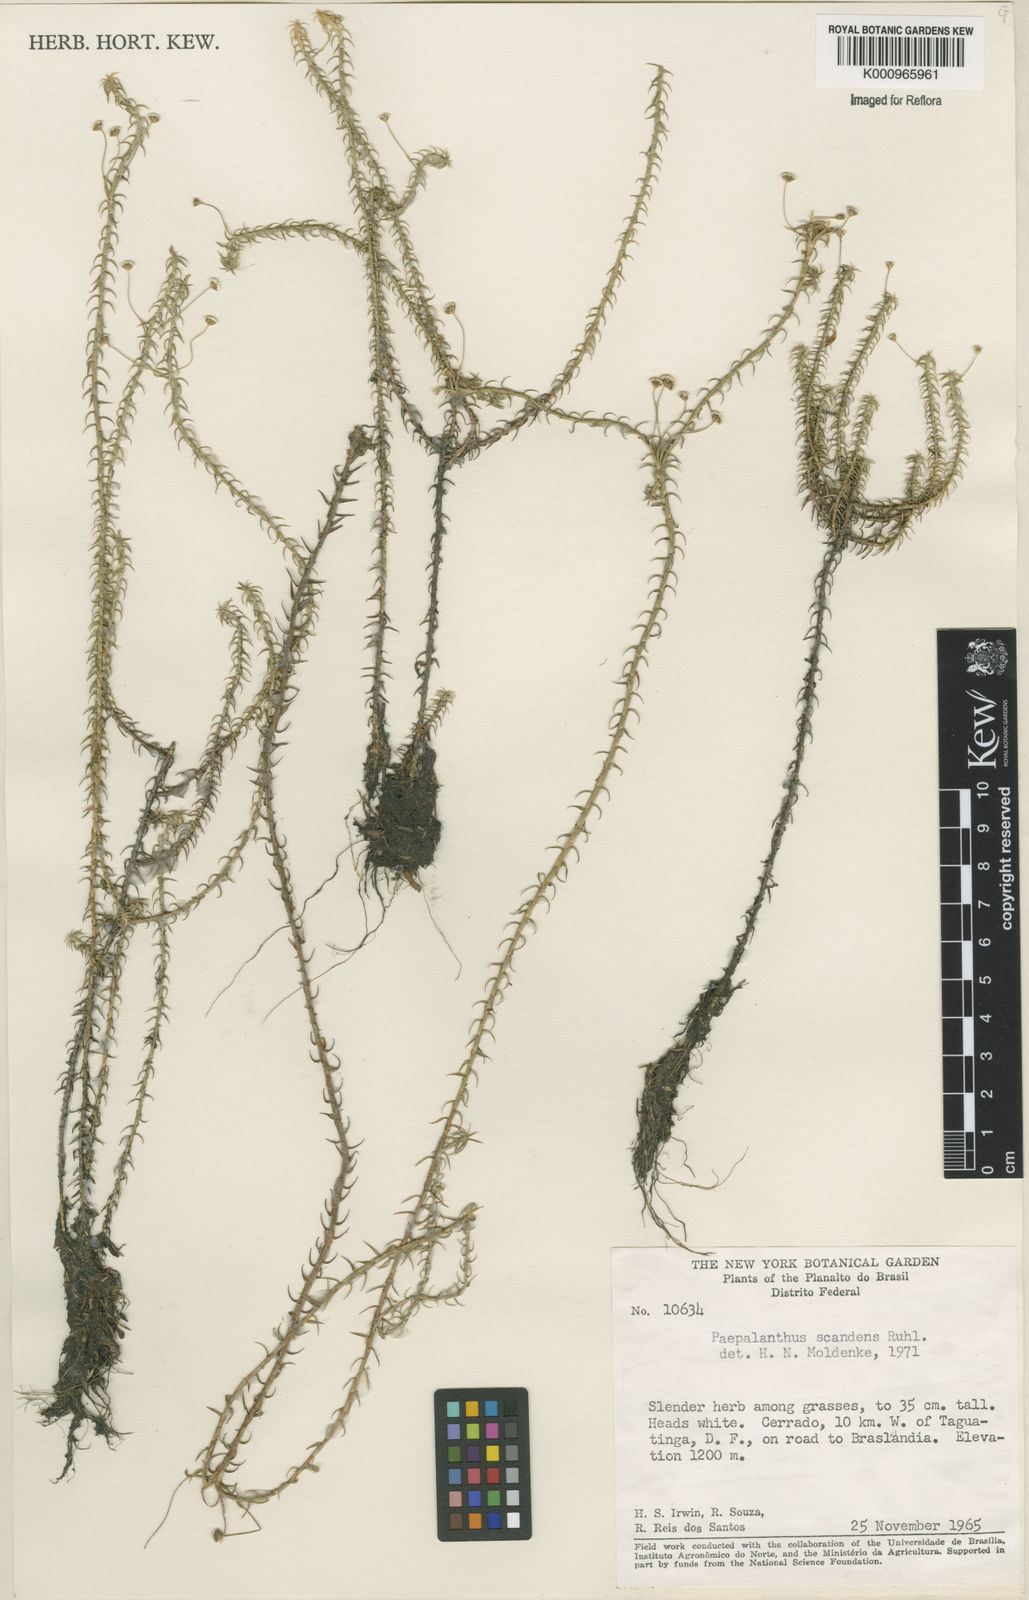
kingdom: Plantae
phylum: Tracheophyta
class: Liliopsida
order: Poales
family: Eriocaulaceae
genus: Paepalanthus
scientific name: Paepalanthus scandens
